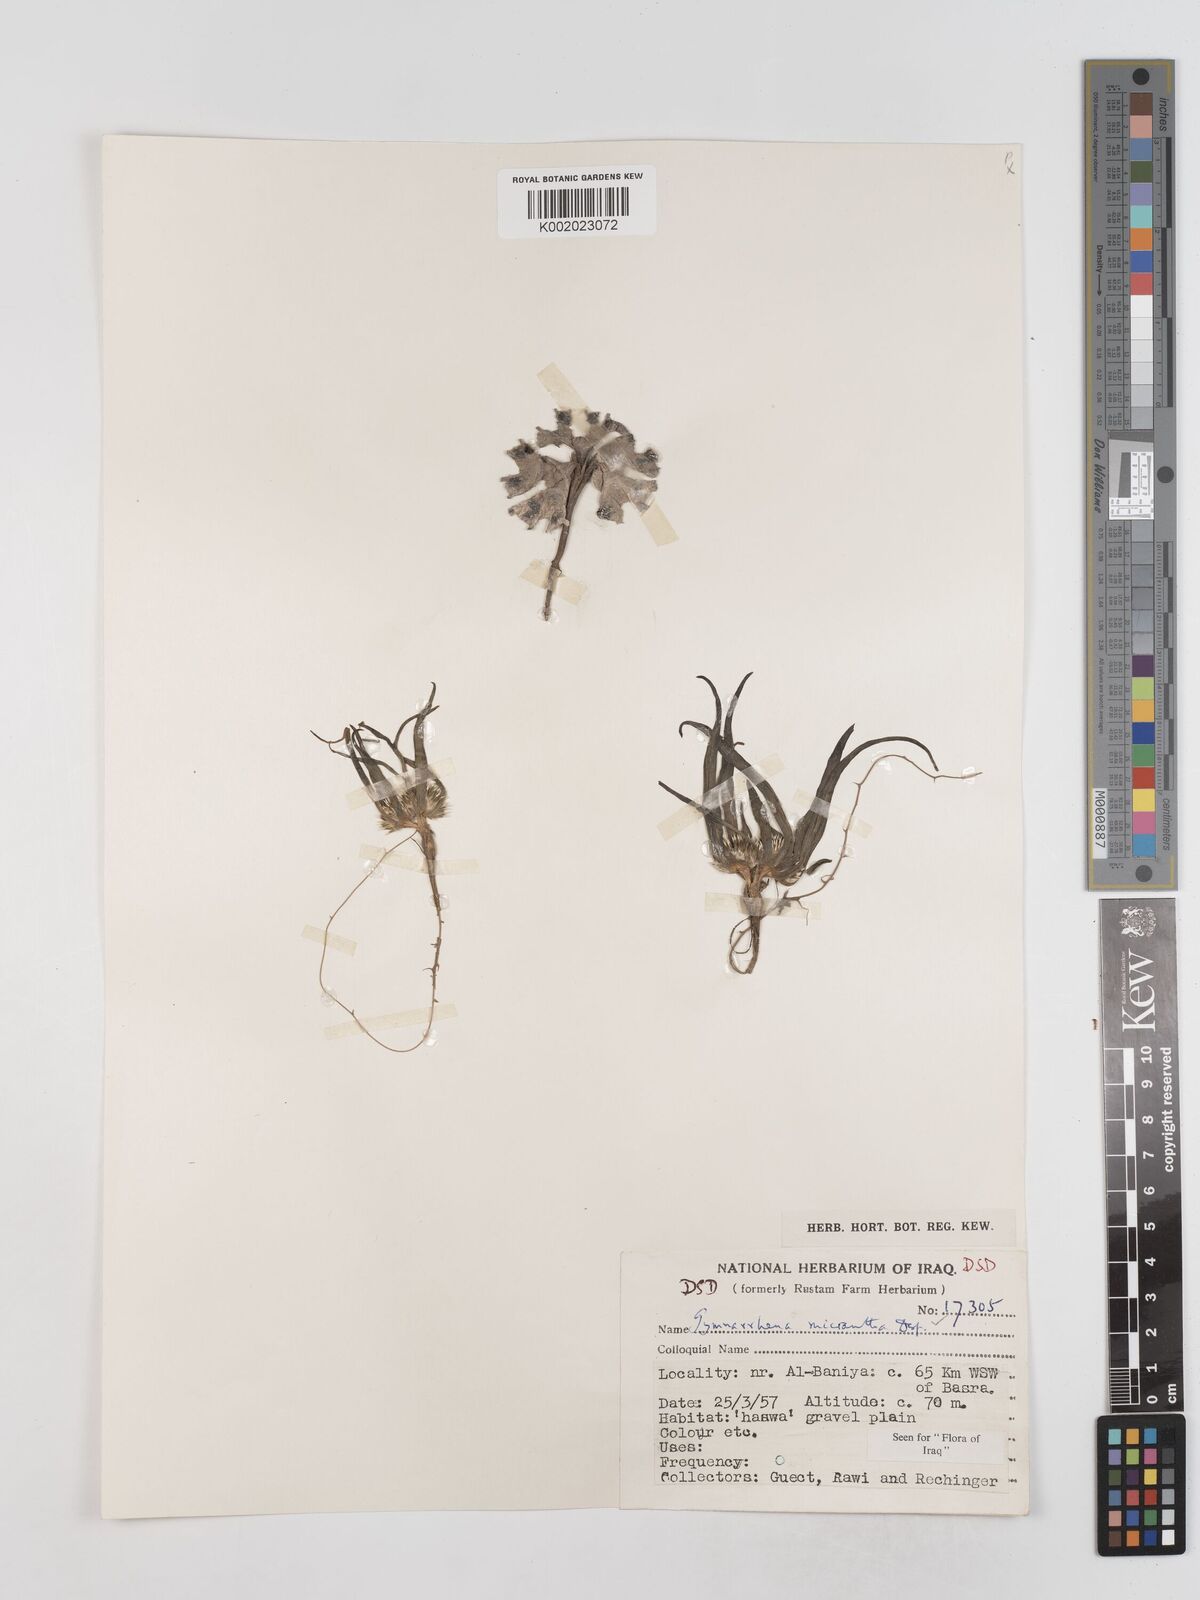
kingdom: Plantae
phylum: Tracheophyta
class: Magnoliopsida
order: Asterales
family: Asteraceae
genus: Gymnarrhena
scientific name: Gymnarrhena micrantha
